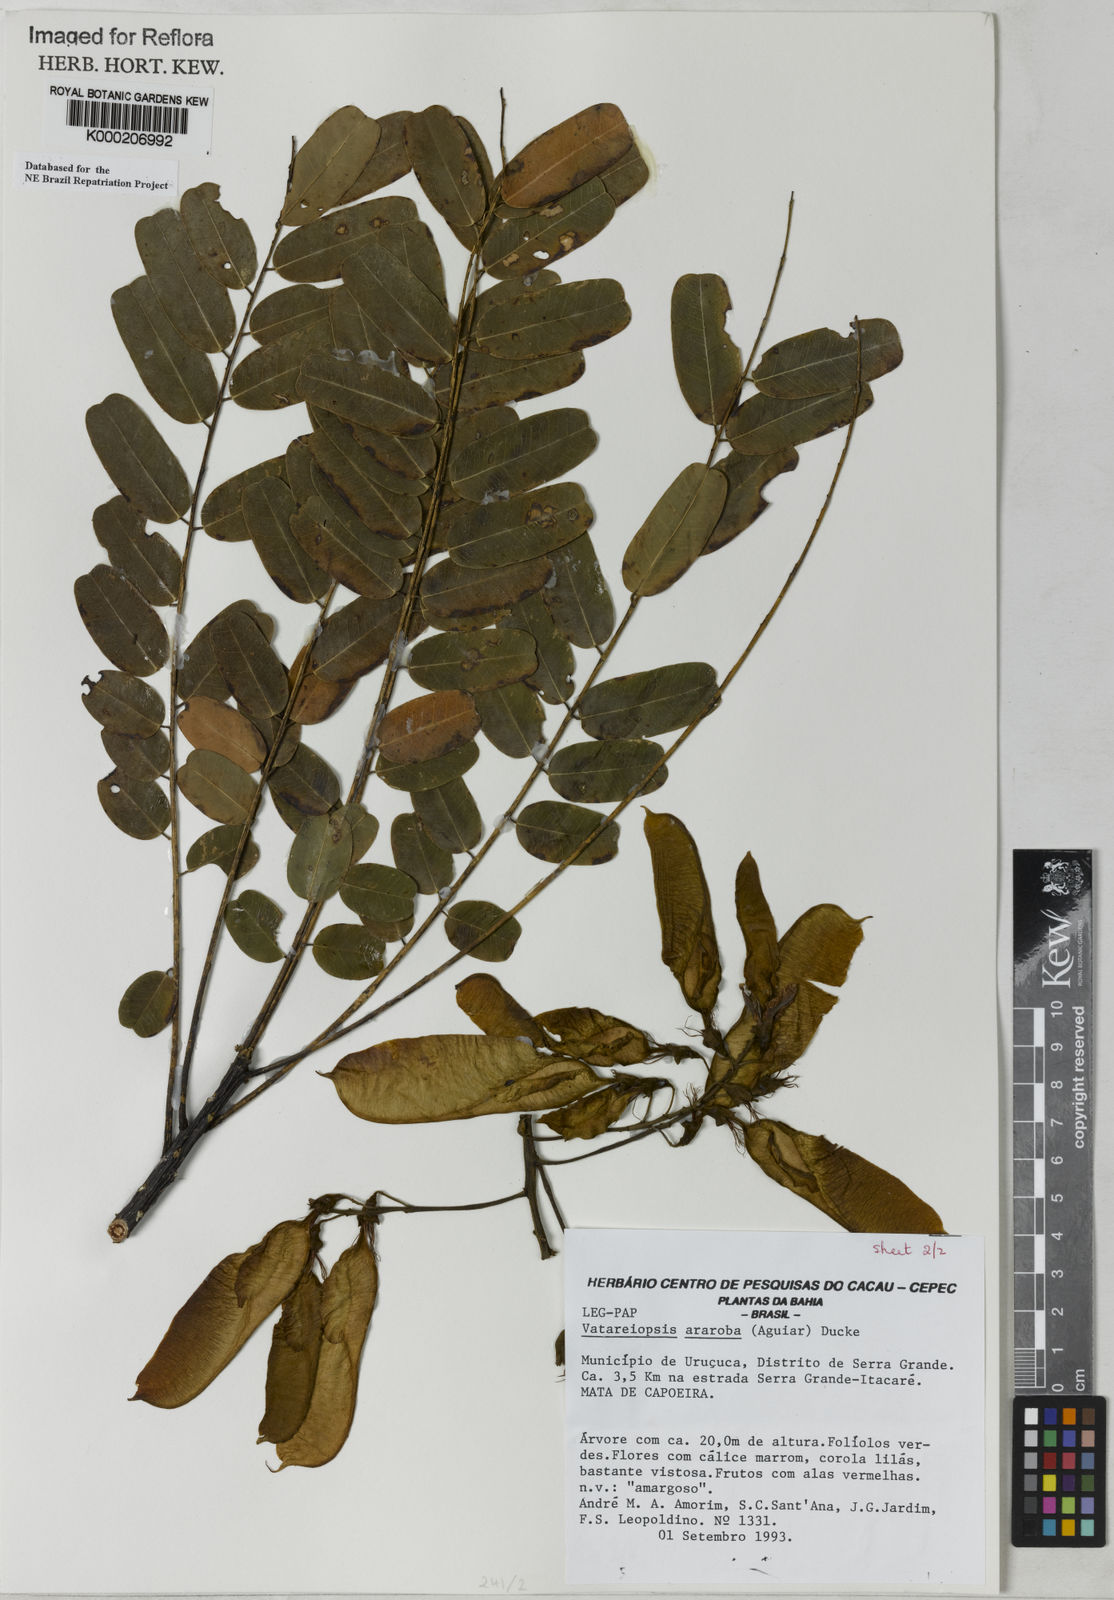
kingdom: Plantae
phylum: Tracheophyta
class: Magnoliopsida
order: Fabales
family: Fabaceae
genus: Vataireopsis
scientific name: Vataireopsis araroba
